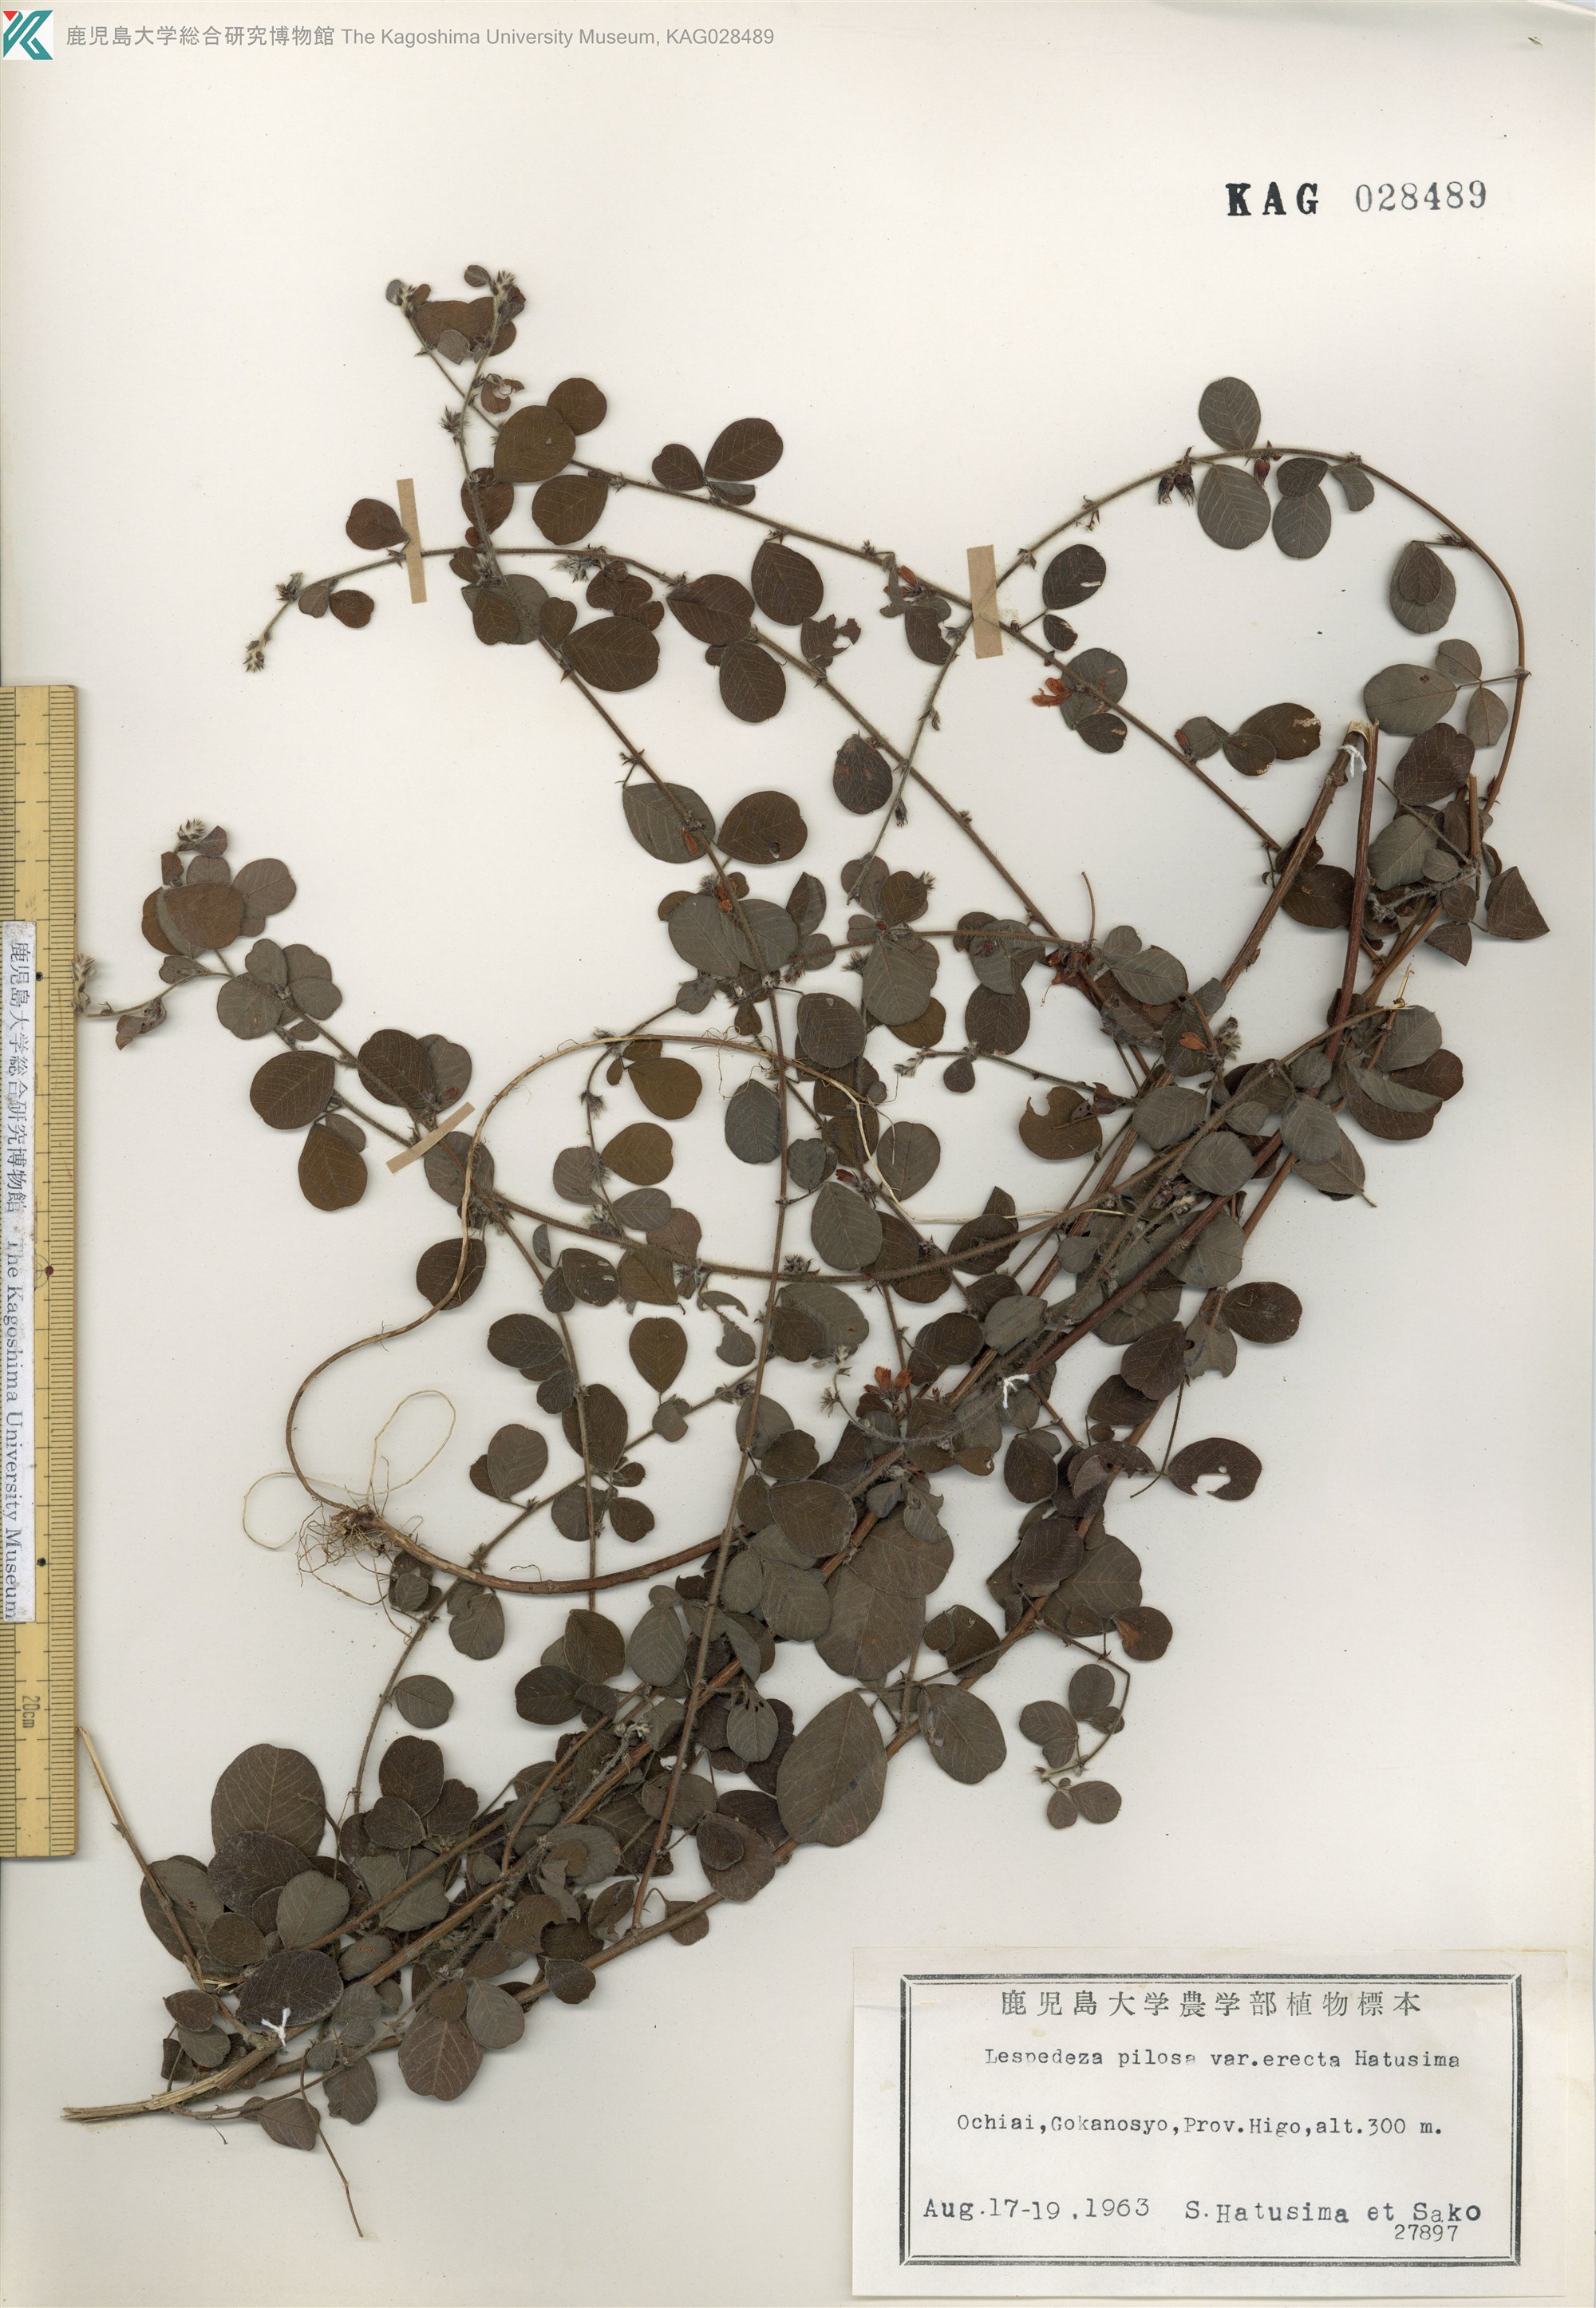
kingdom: Plantae
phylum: Tracheophyta
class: Magnoliopsida
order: Fabales
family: Fabaceae
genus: Lespedeza
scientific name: Lespedeza pilosa
